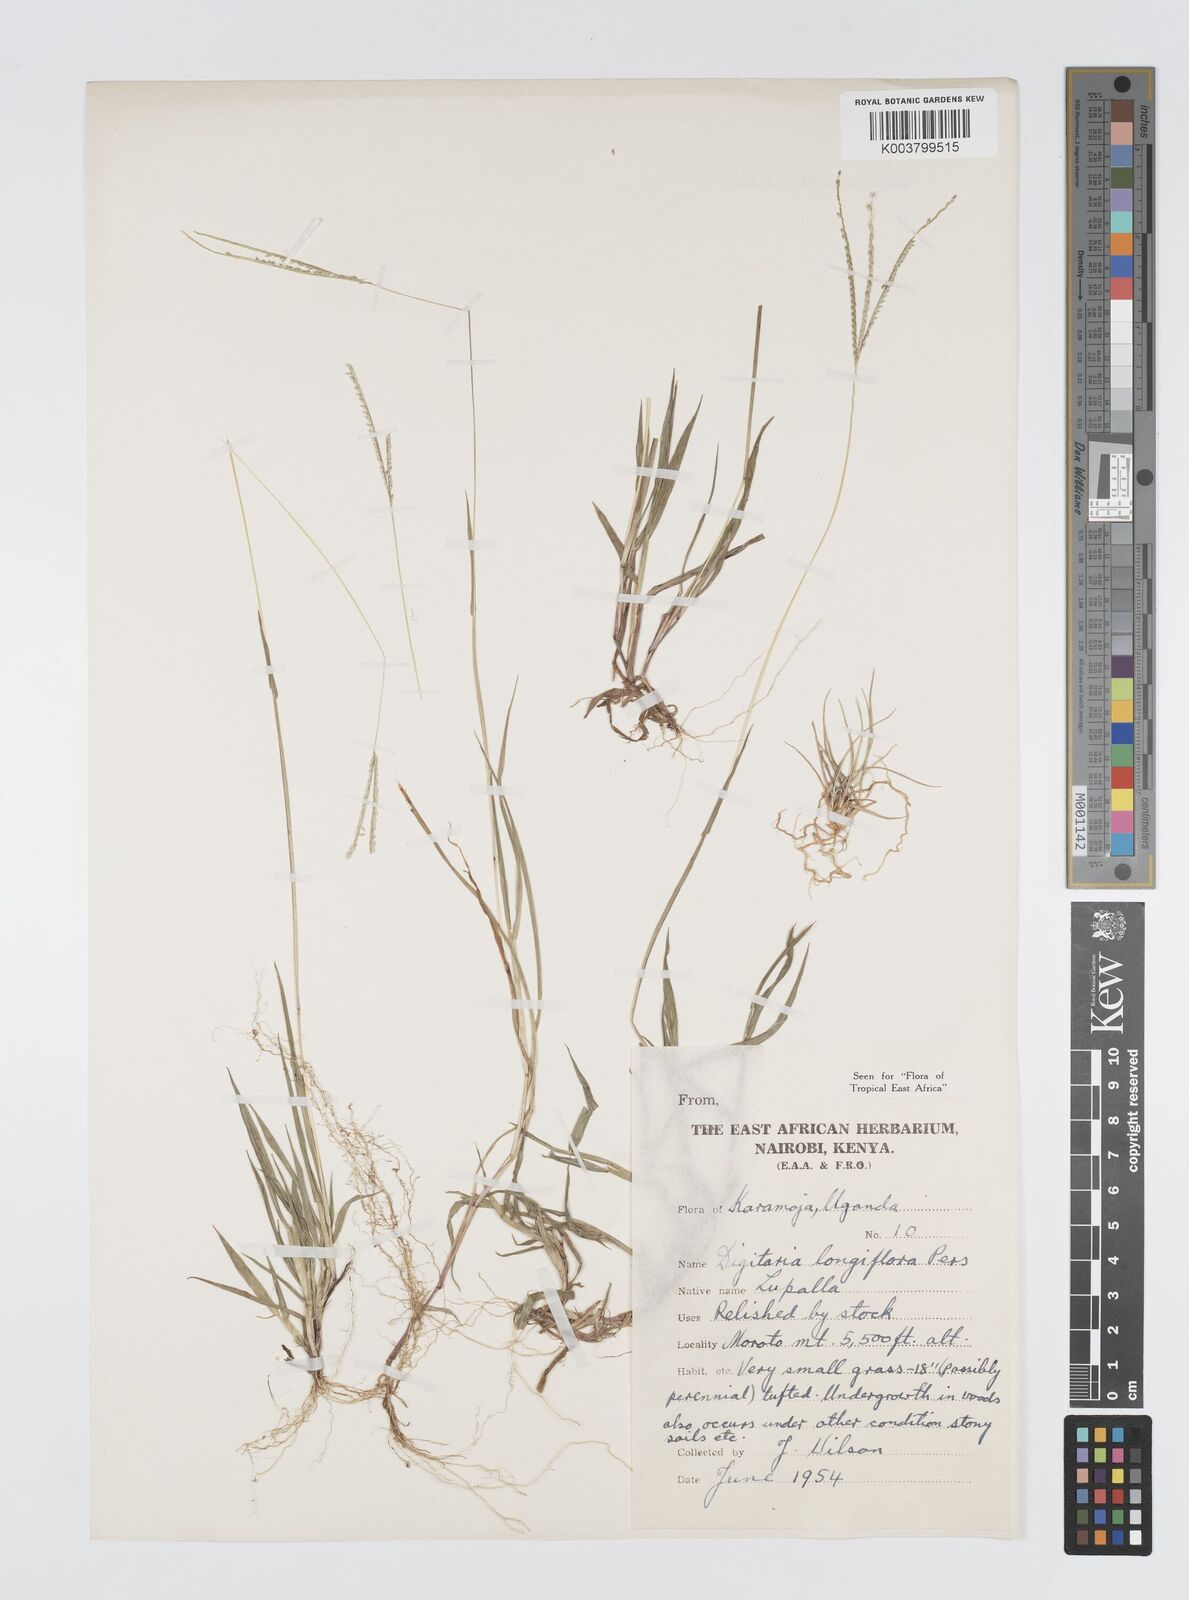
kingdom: Plantae
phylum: Tracheophyta
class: Liliopsida
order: Poales
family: Poaceae
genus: Digitaria
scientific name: Digitaria longiflora
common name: Wire crabgrass
